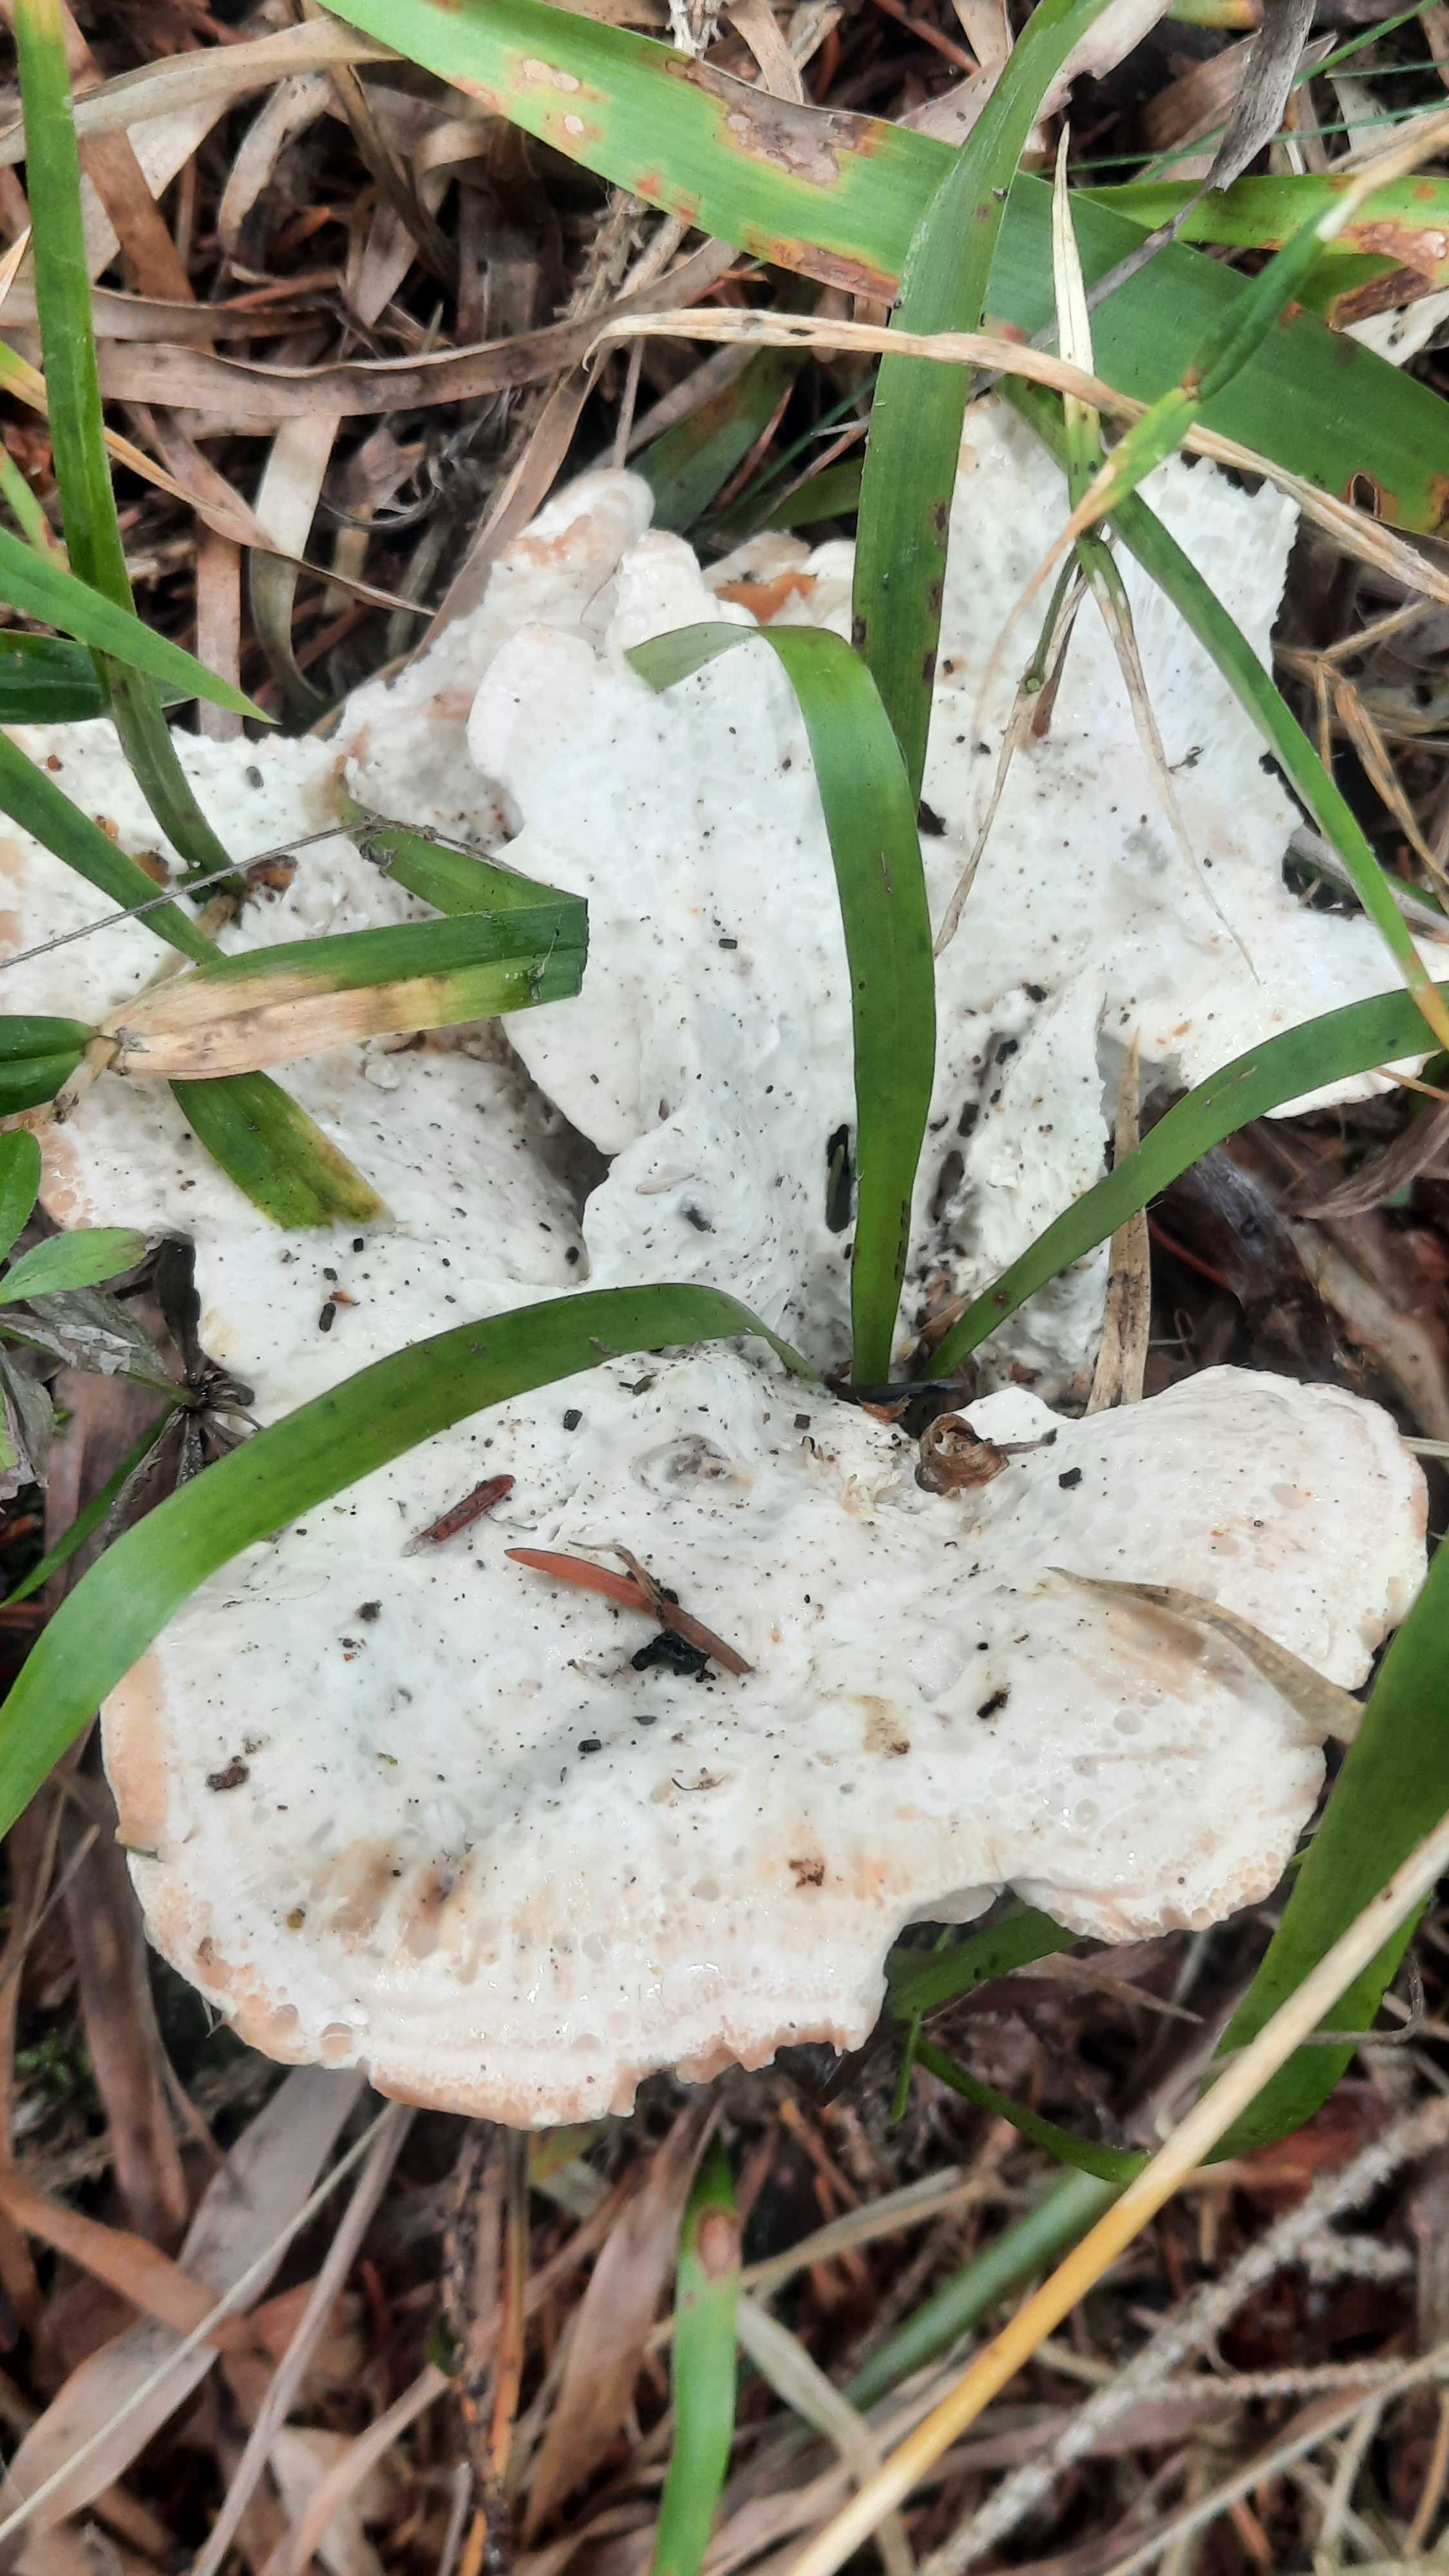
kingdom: Fungi
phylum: Basidiomycota
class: Agaricomycetes
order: Polyporales
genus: Calcipostia
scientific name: Calcipostia guttulata
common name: dråbe-kødporesvamp
